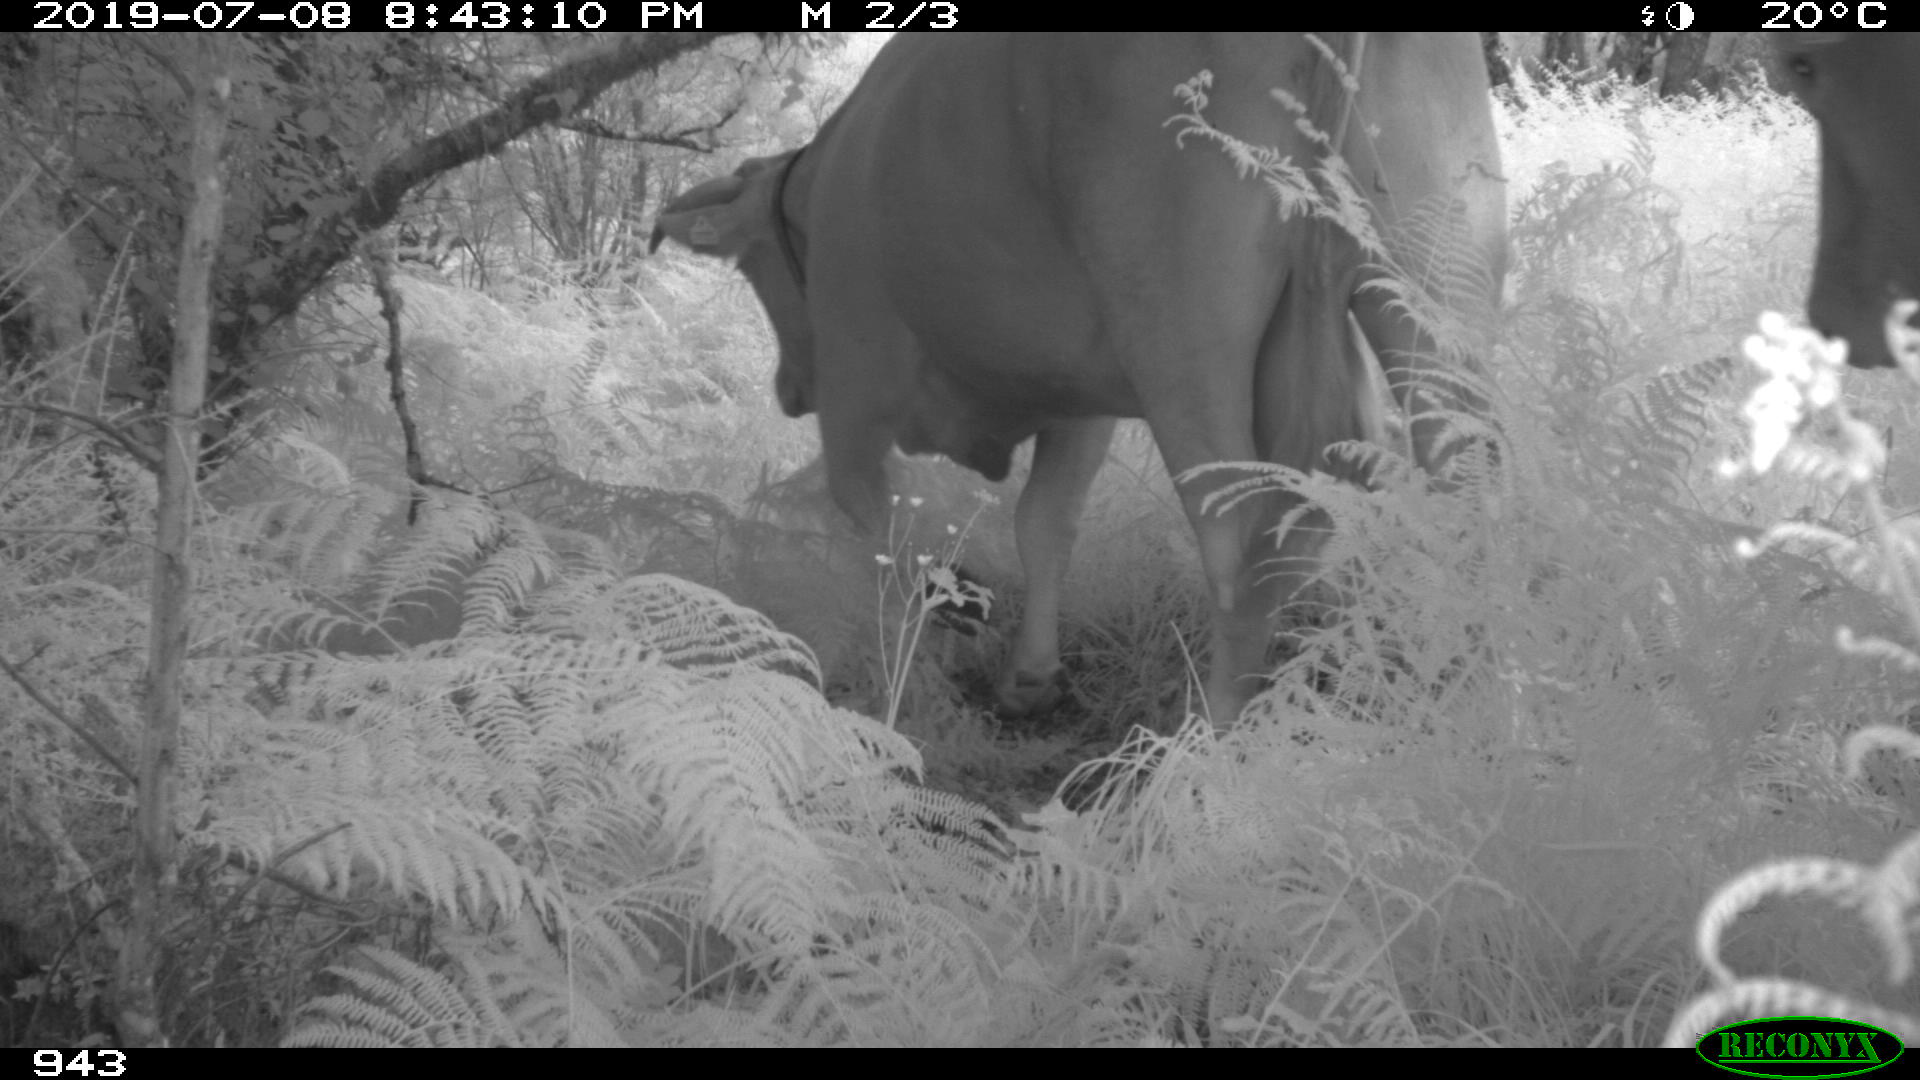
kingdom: Animalia
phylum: Chordata
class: Mammalia
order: Artiodactyla
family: Bovidae
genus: Bos
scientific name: Bos taurus
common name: Domesticated cattle
